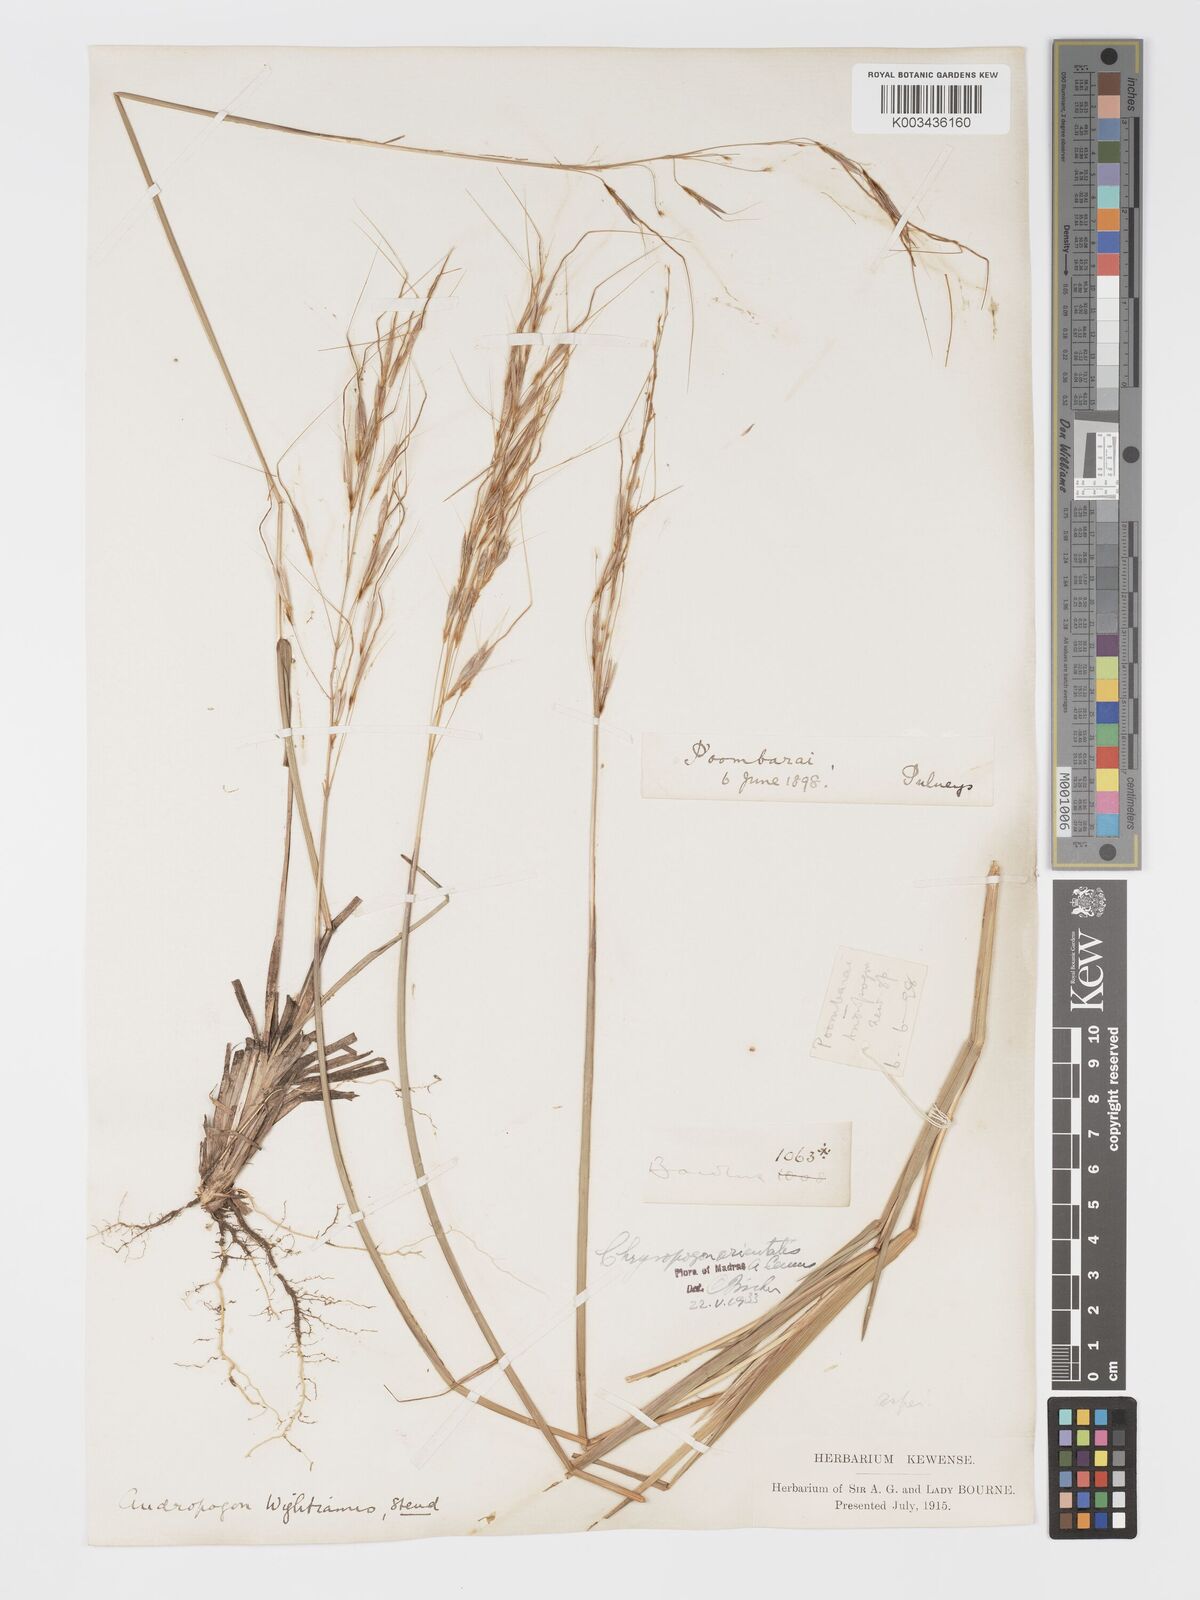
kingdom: Plantae
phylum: Tracheophyta
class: Liliopsida
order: Poales
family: Poaceae
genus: Chrysopogon
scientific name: Chrysopogon orientalis
